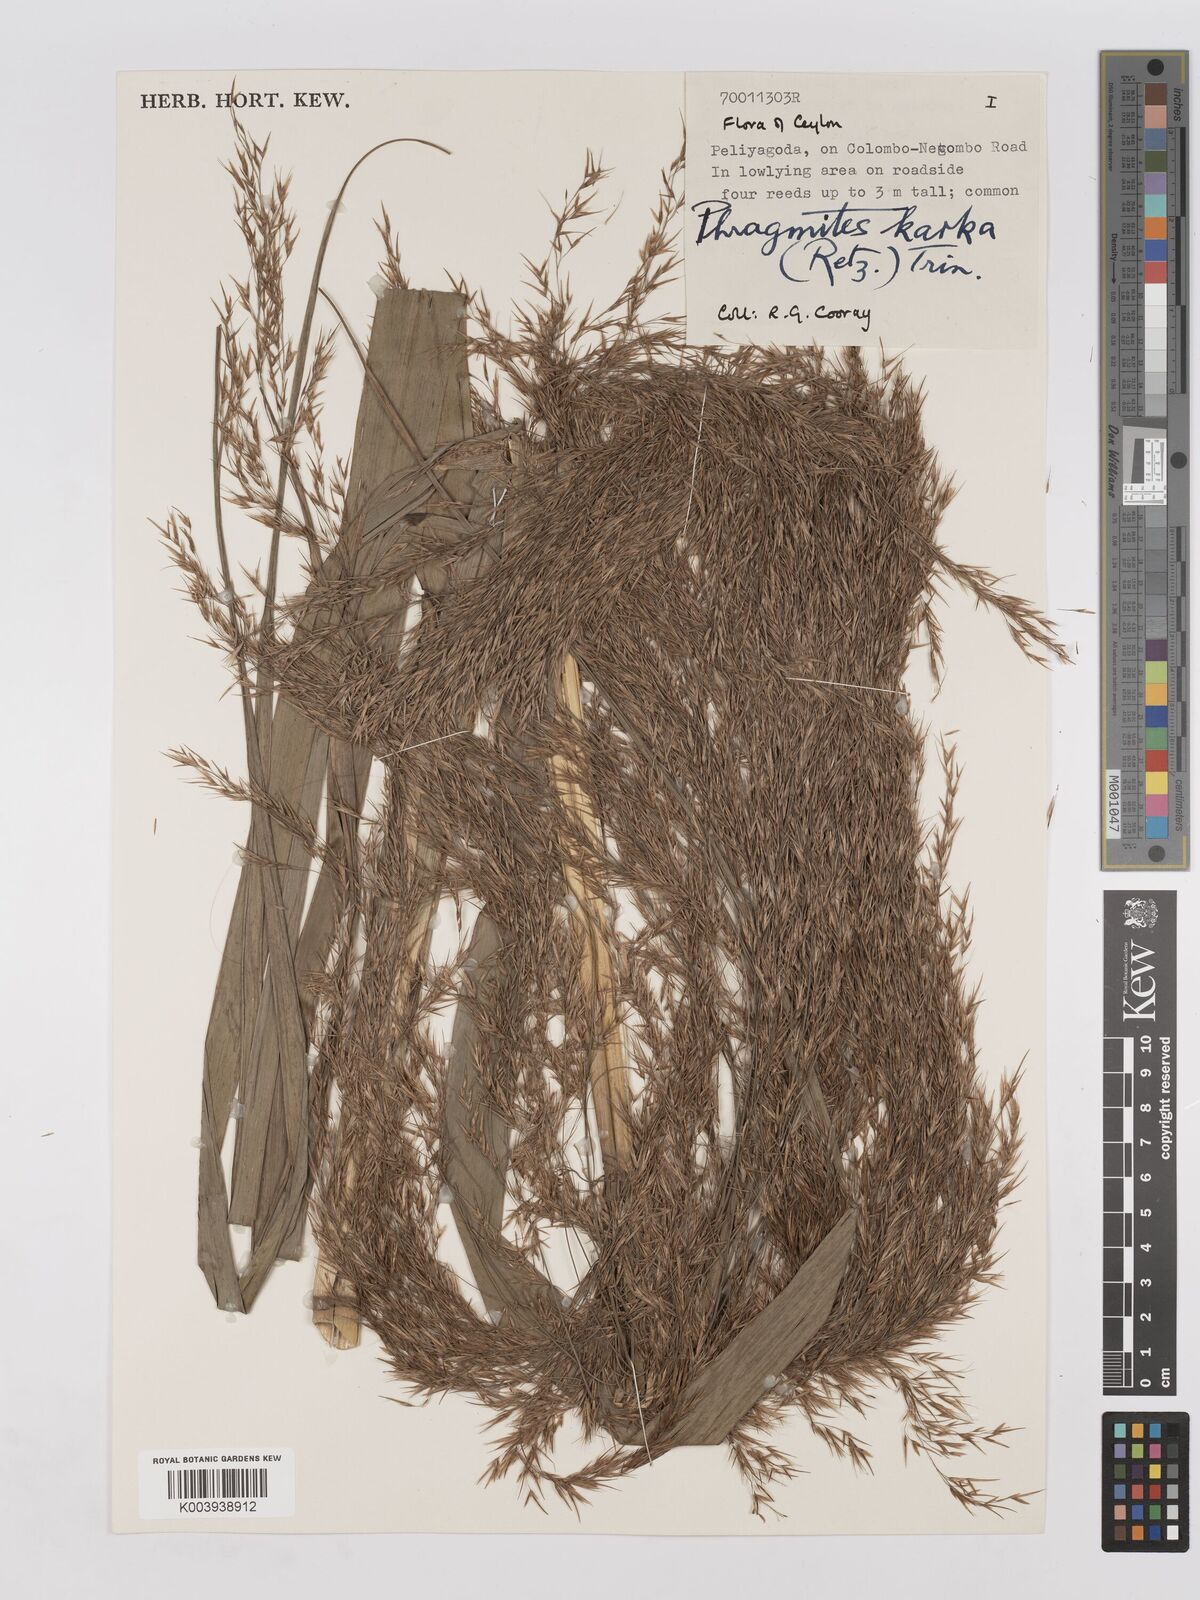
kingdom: Plantae
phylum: Tracheophyta
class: Liliopsida
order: Poales
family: Poaceae
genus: Phragmites
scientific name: Phragmites karka
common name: Tropical reed
